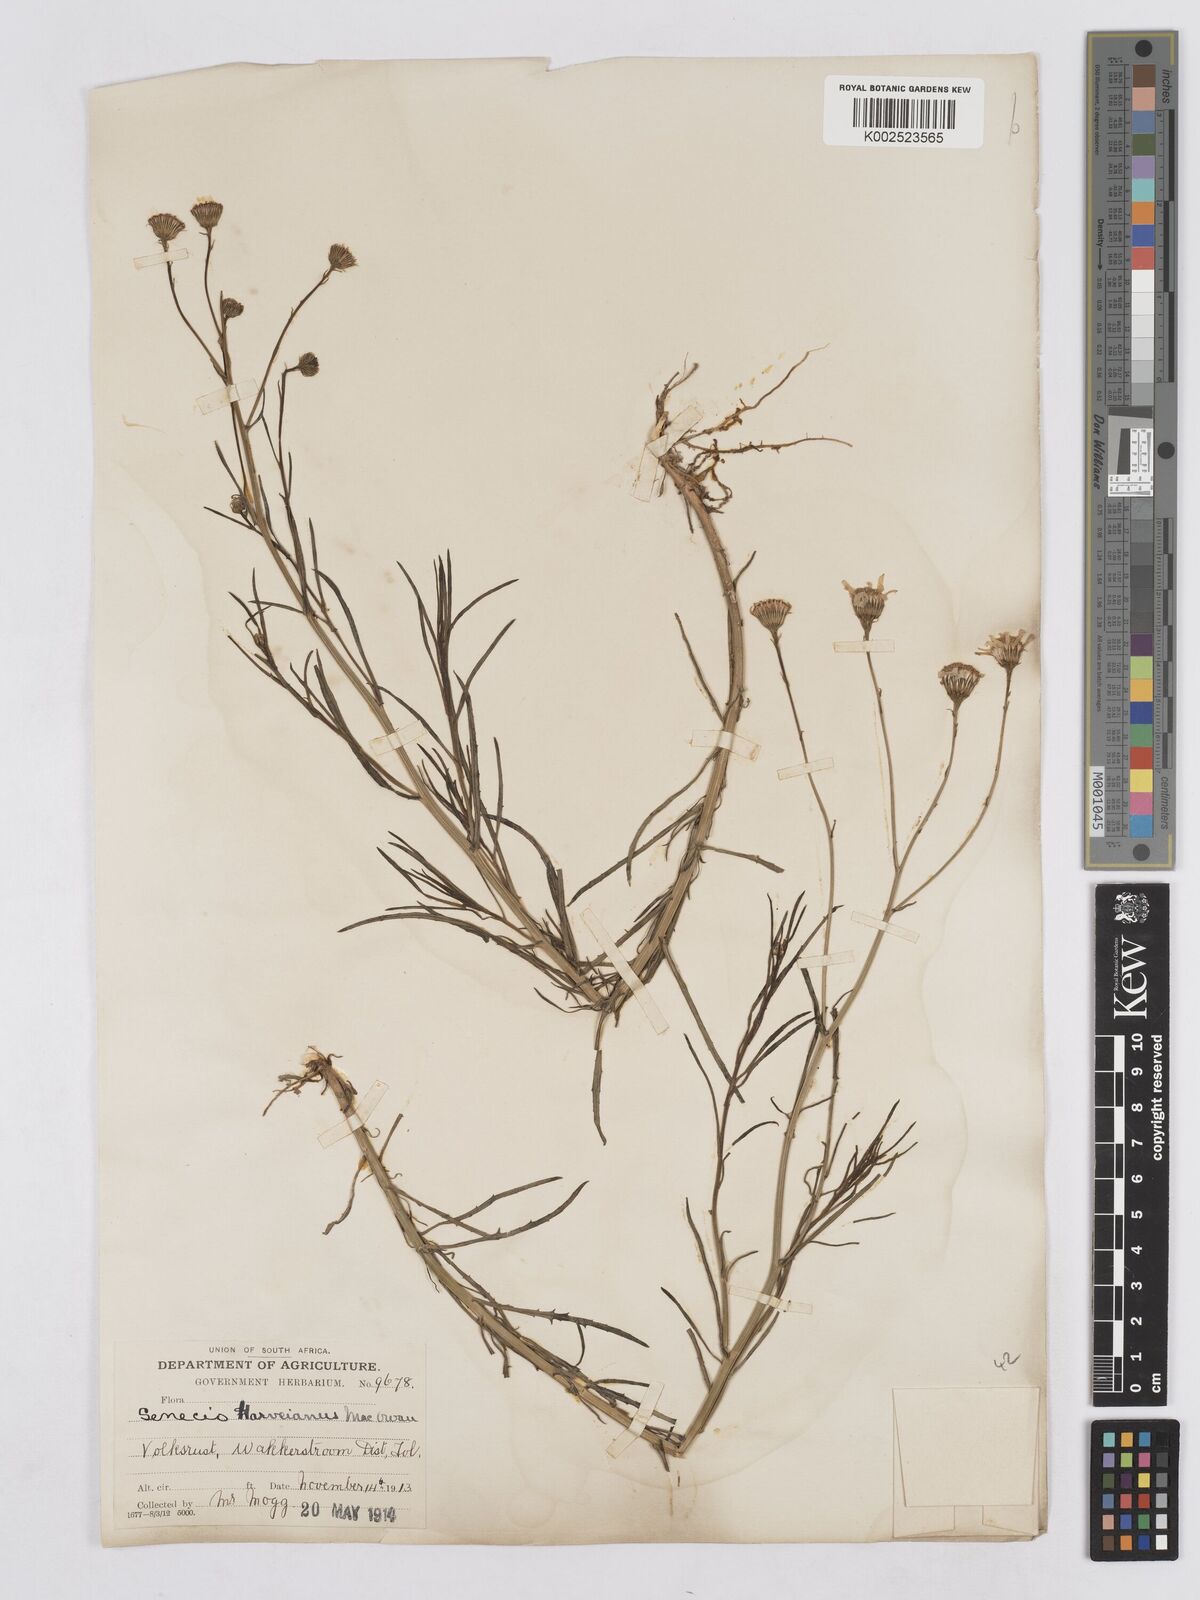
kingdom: Plantae
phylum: Tracheophyta
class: Magnoliopsida
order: Asterales
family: Asteraceae
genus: Senecio
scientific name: Senecio inaequidens
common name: Narrow-leaved ragwort
